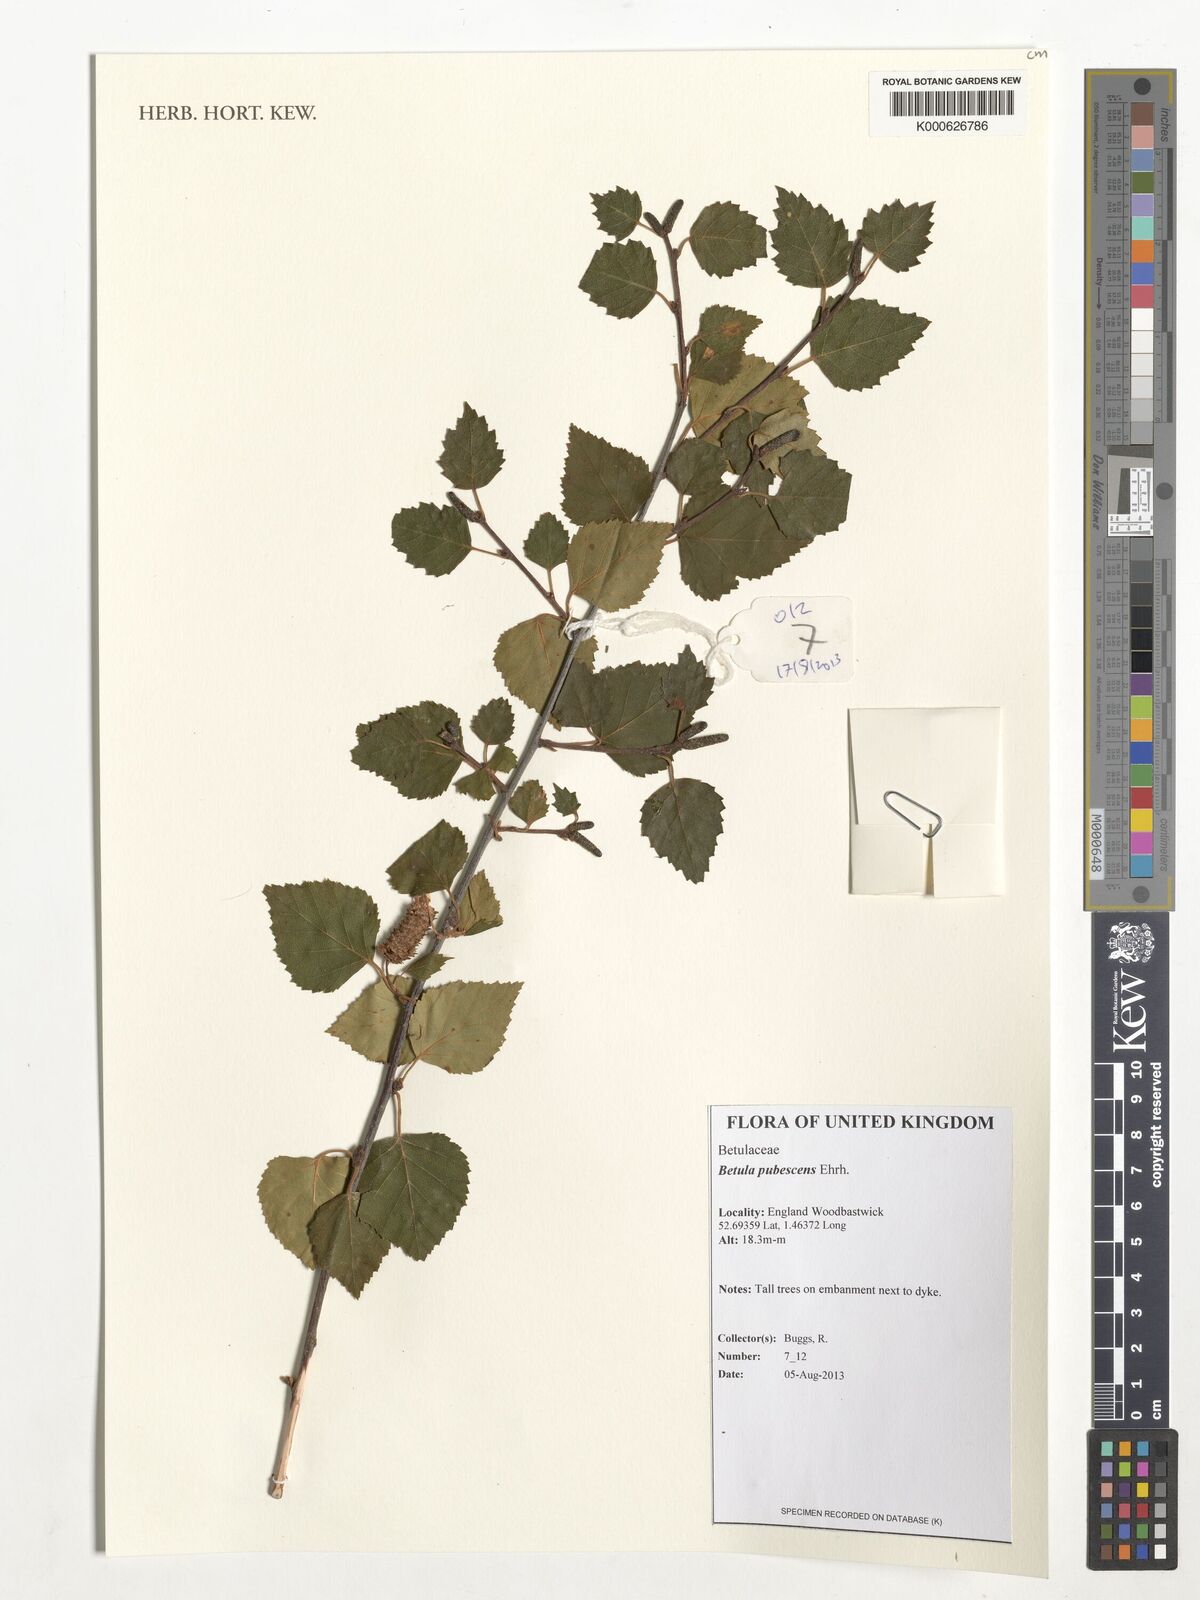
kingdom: Plantae
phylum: Tracheophyta
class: Magnoliopsida
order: Fagales
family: Betulaceae
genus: Betula
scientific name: Betula pubescens
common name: Downy birch
